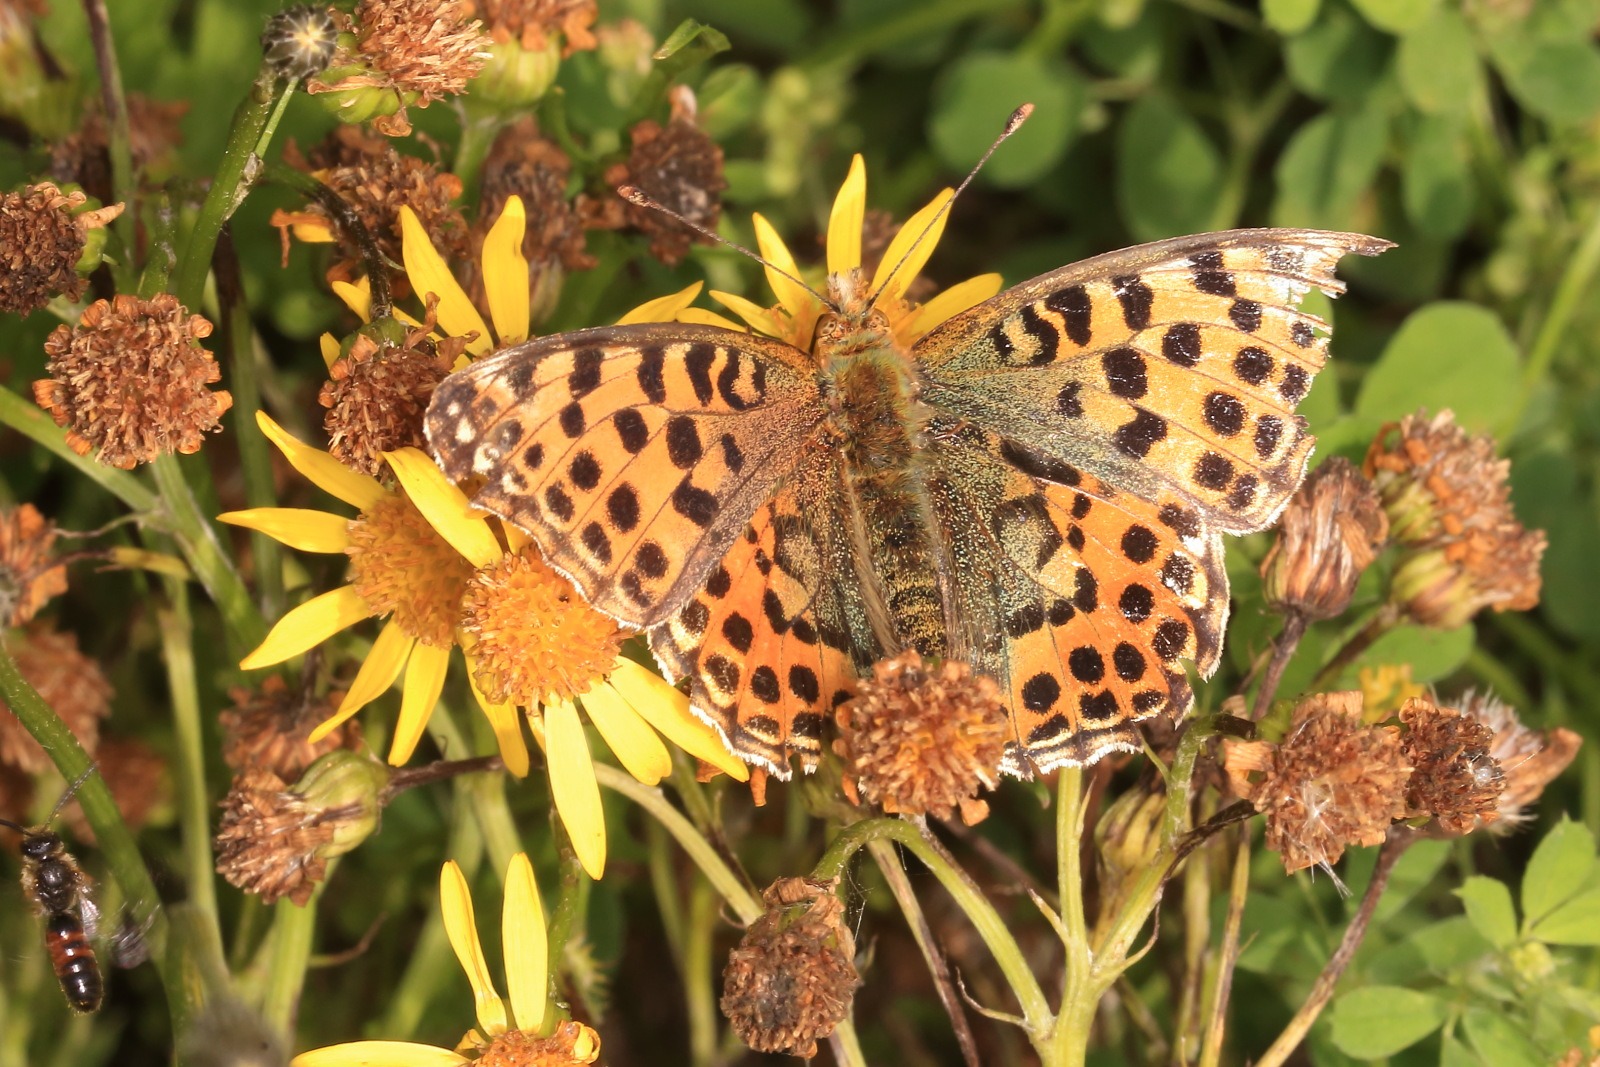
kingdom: Animalia
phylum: Arthropoda
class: Insecta
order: Lepidoptera
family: Nymphalidae
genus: Issoria
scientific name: Issoria lathonia
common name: Storplettet perlemorsommerfugl
